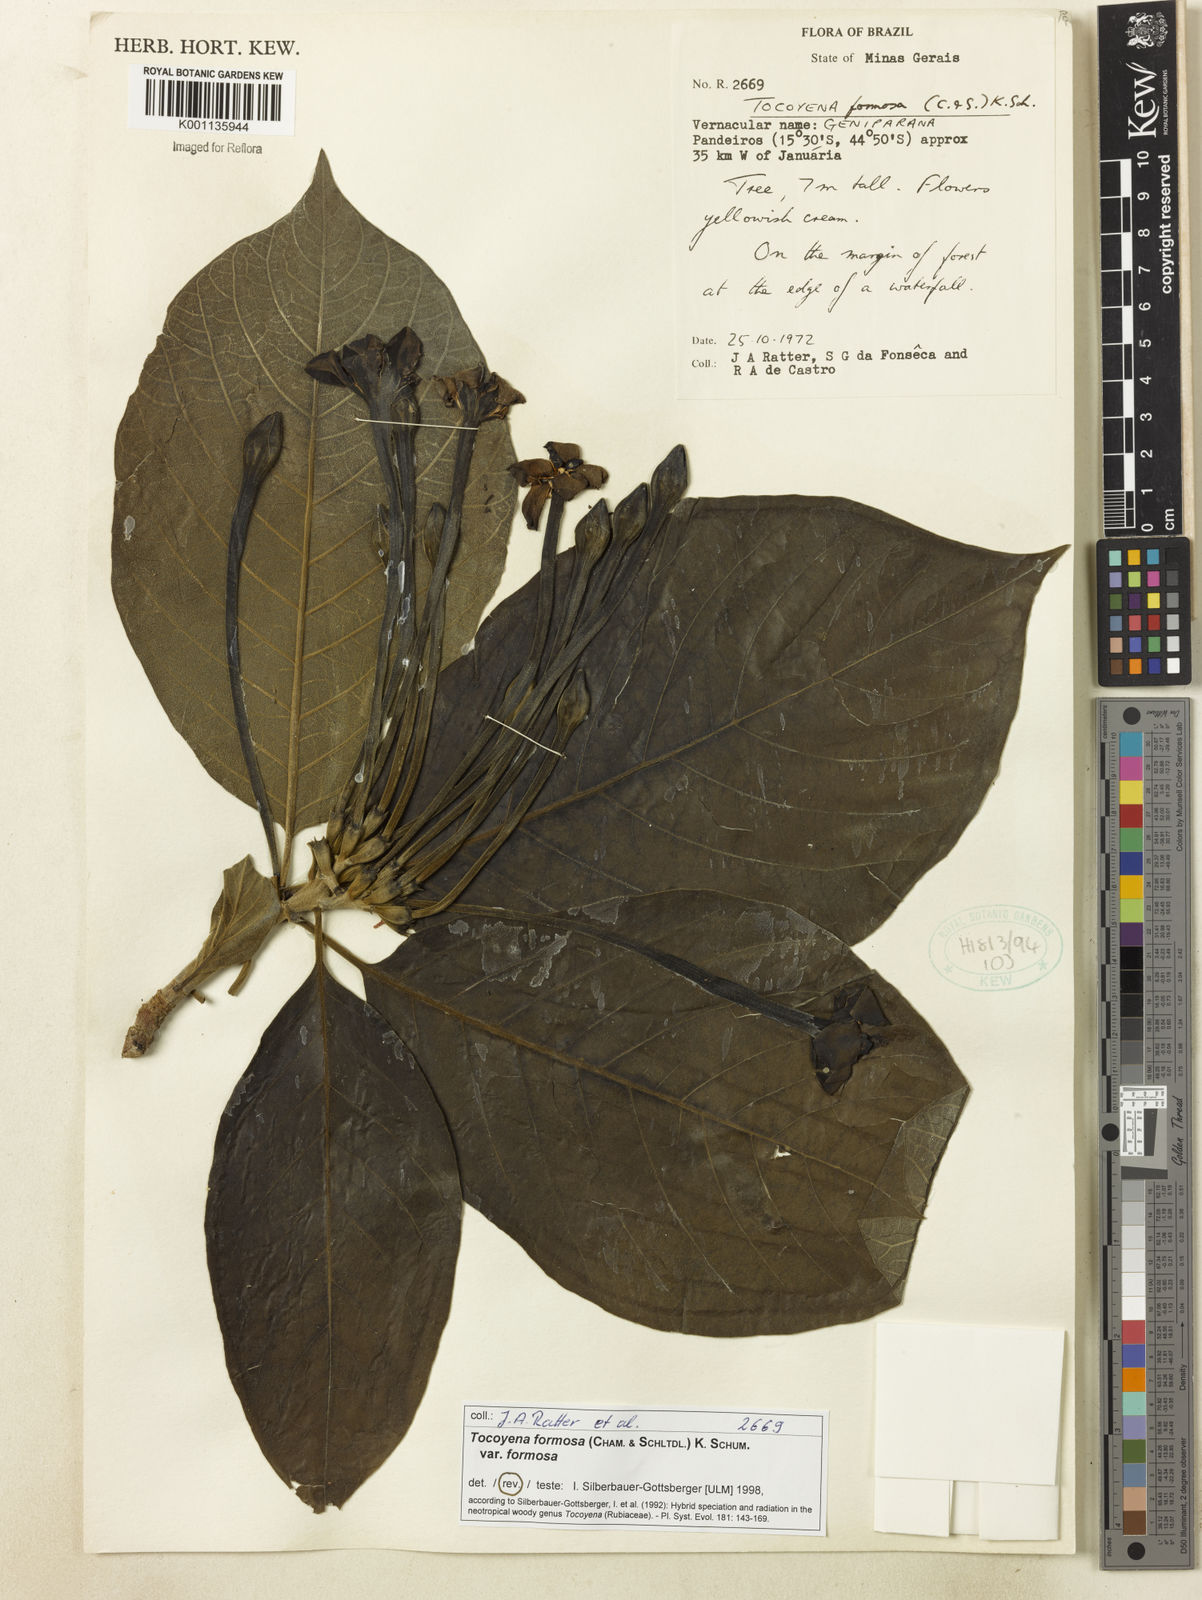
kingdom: Plantae
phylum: Tracheophyta
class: Magnoliopsida
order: Gentianales
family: Rubiaceae
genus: Tocoyena
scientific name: Tocoyena formosa
